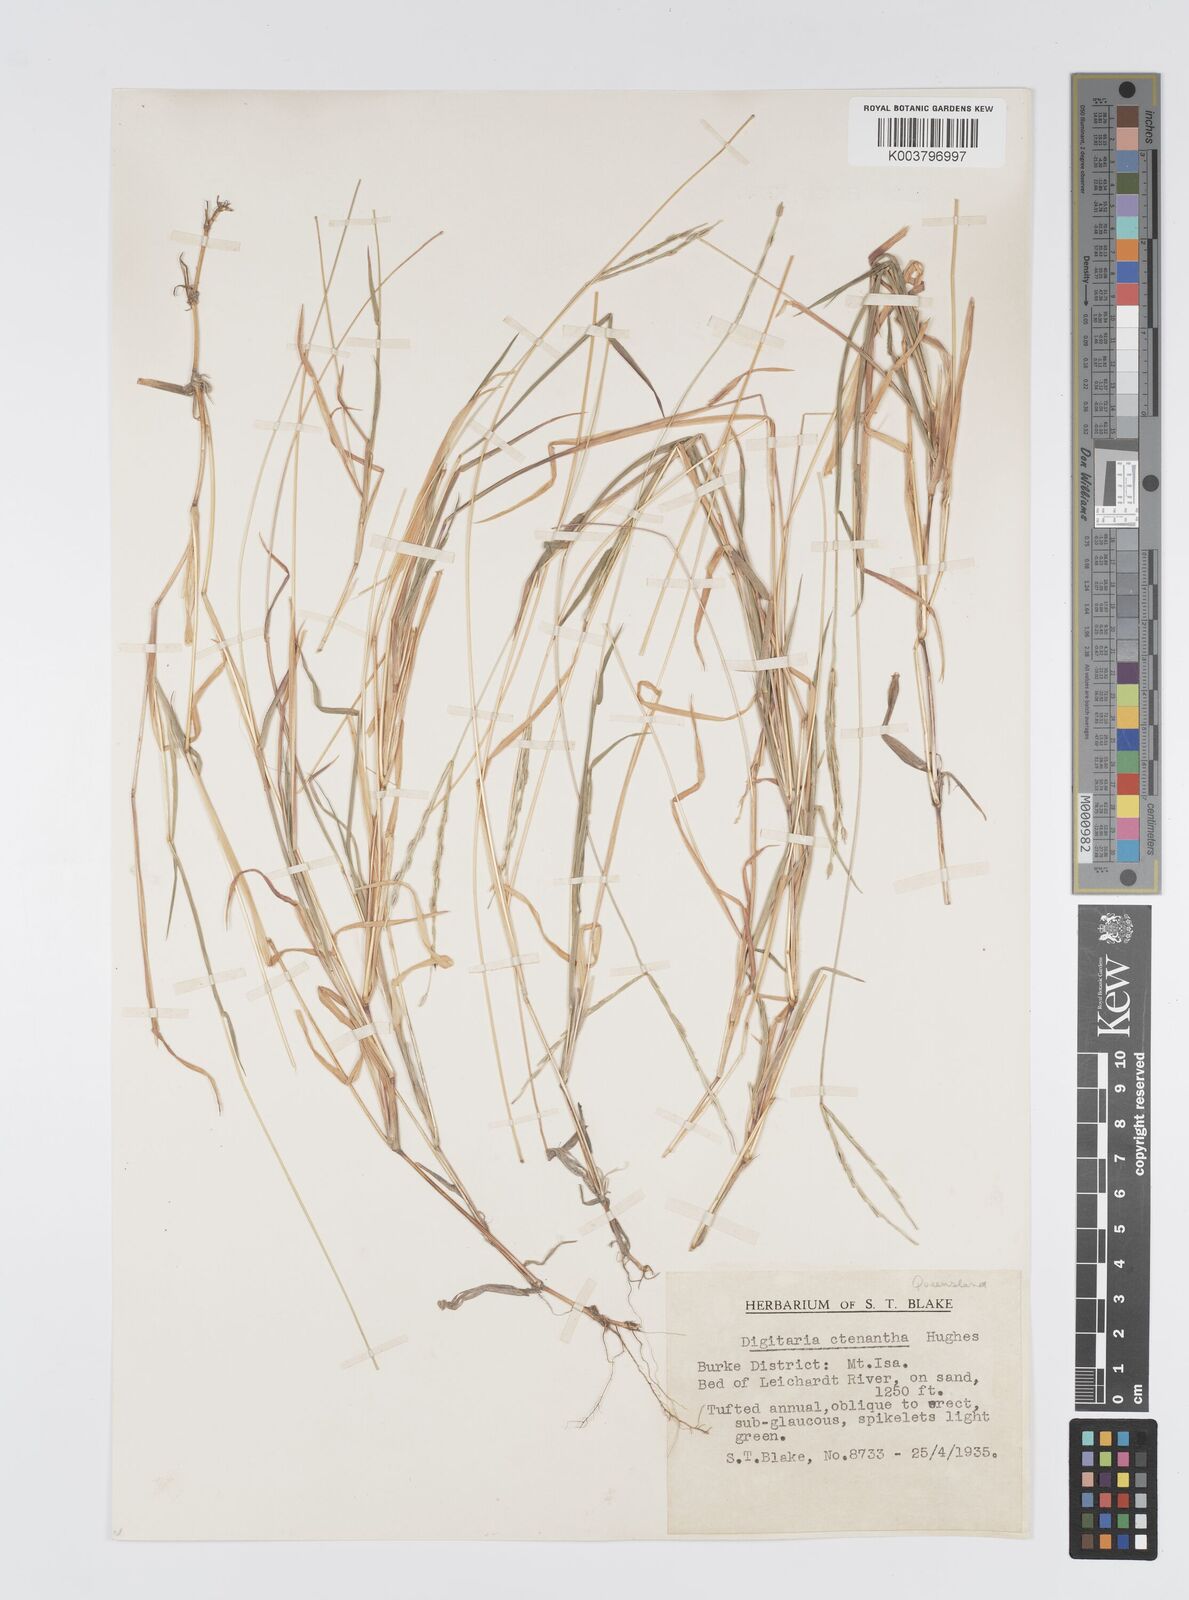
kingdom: Plantae
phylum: Tracheophyta
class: Liliopsida
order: Poales
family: Poaceae
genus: Digitaria
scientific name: Digitaria ctenantha
